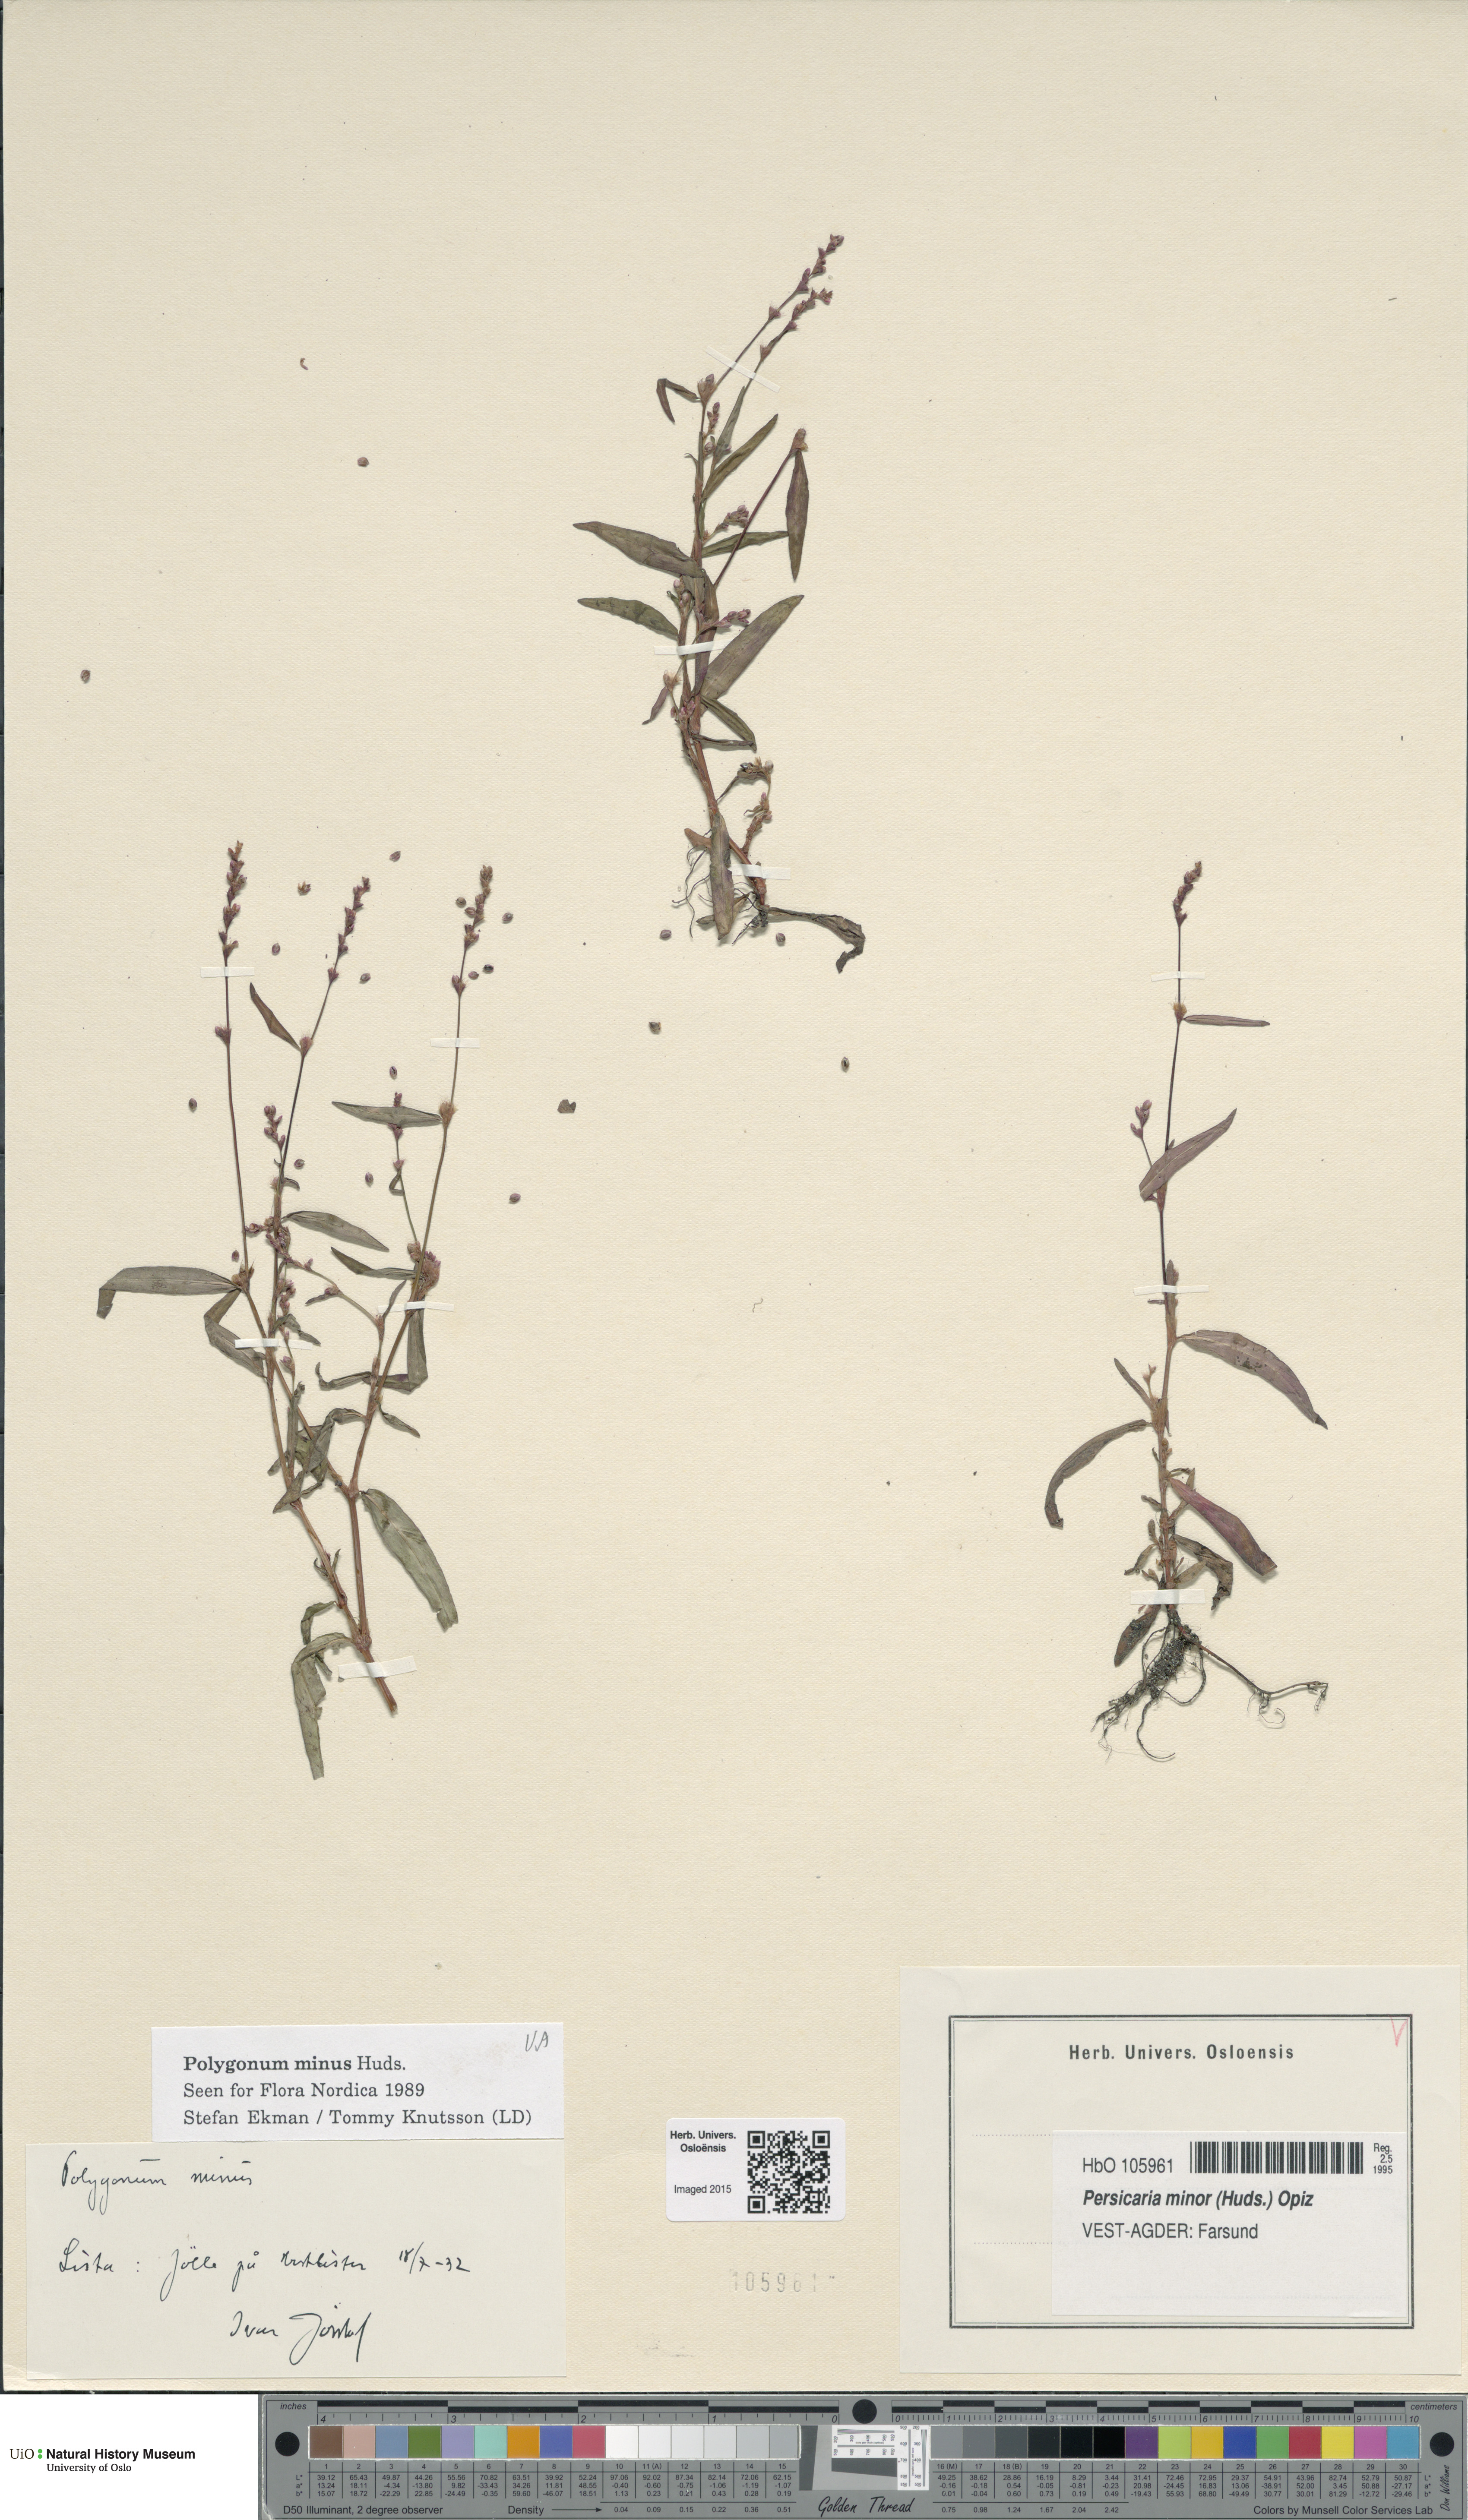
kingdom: Plantae
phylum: Tracheophyta
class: Magnoliopsida
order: Caryophyllales
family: Polygonaceae
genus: Persicaria
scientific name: Persicaria minor
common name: Small water-pepper
